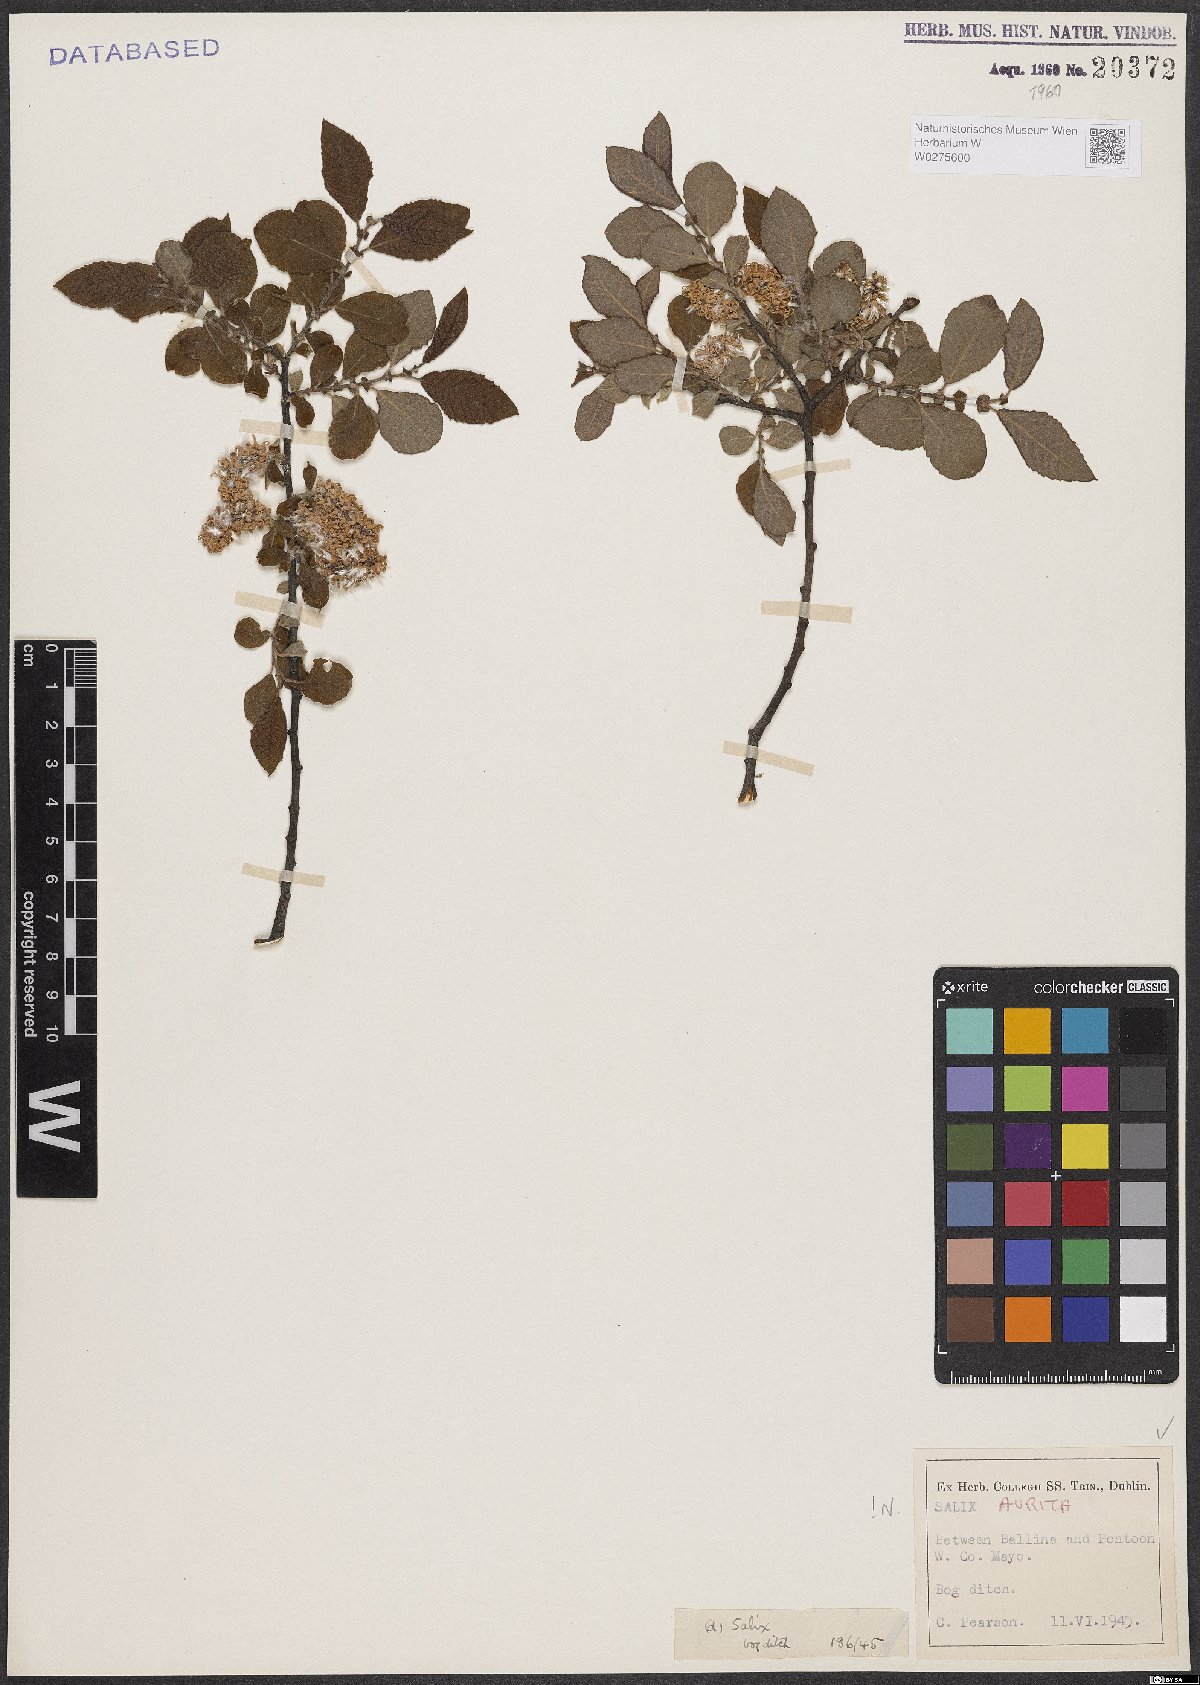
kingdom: Plantae
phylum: Tracheophyta
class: Magnoliopsida
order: Malpighiales
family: Salicaceae
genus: Salix
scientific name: Salix aurita
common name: Eared willow
